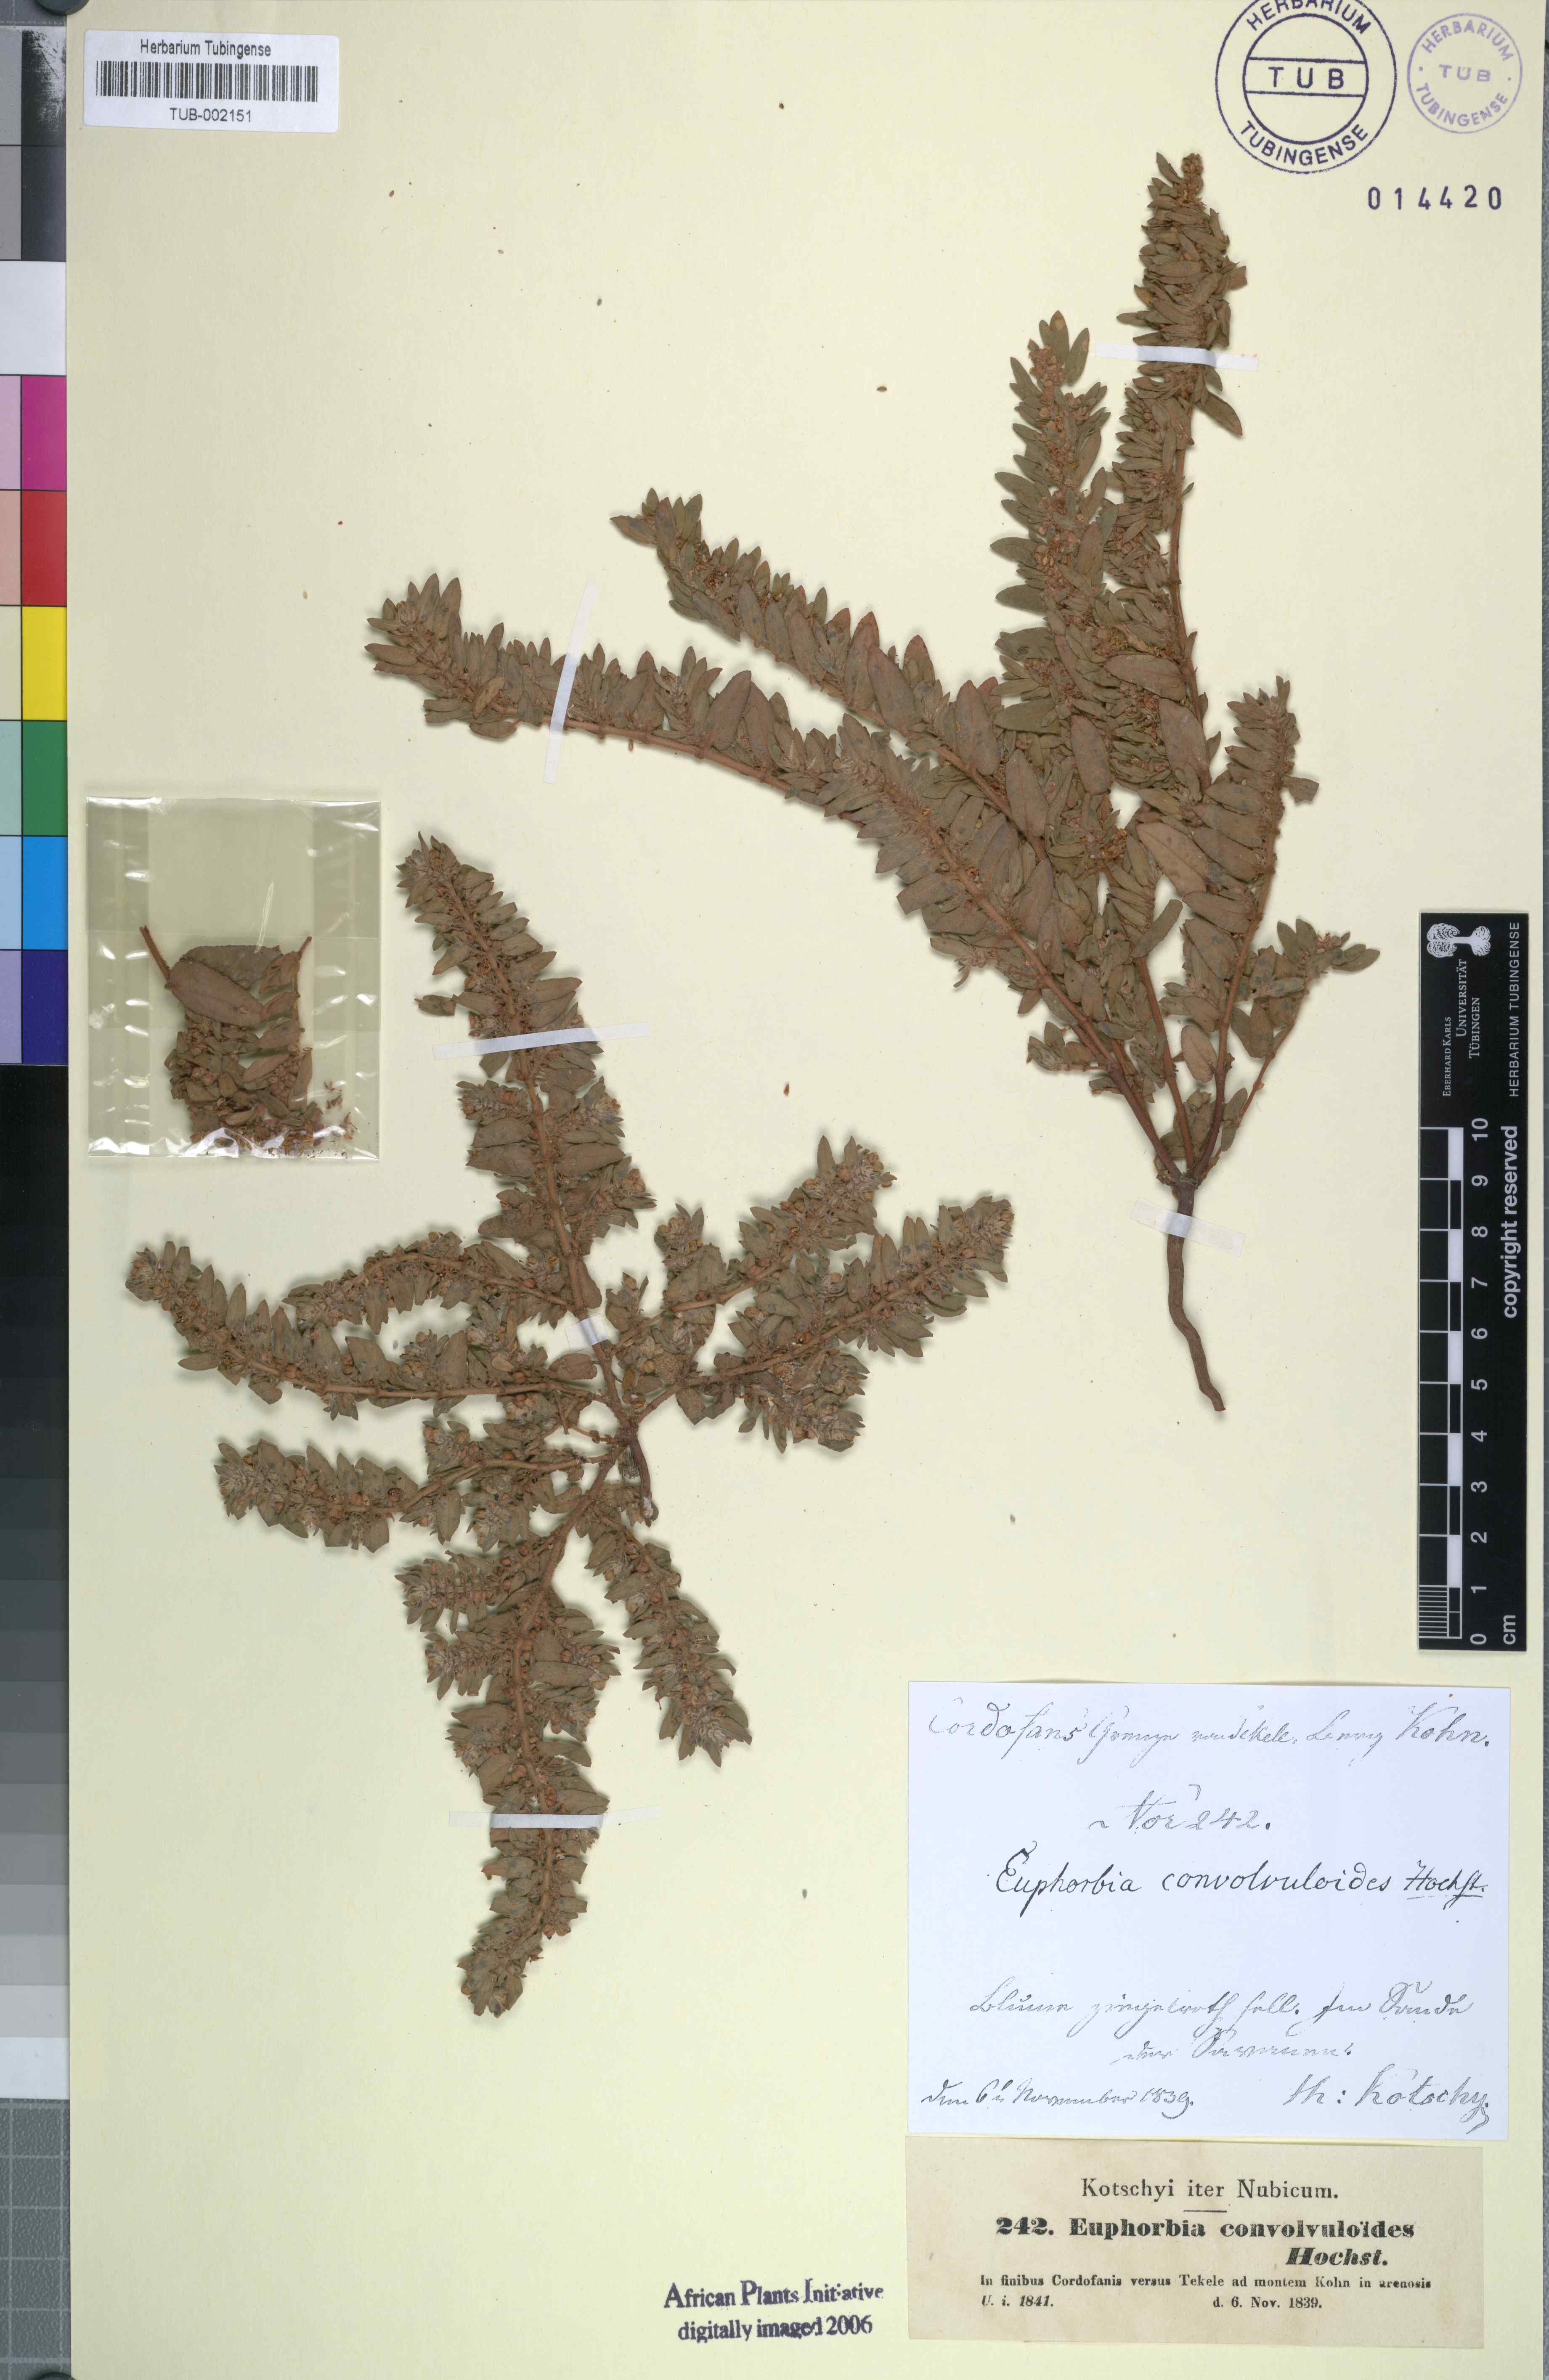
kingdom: Plantae
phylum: Tracheophyta
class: Magnoliopsida
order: Malpighiales
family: Euphorbiaceae
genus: Euphorbia
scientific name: Euphorbia convolvuloides
